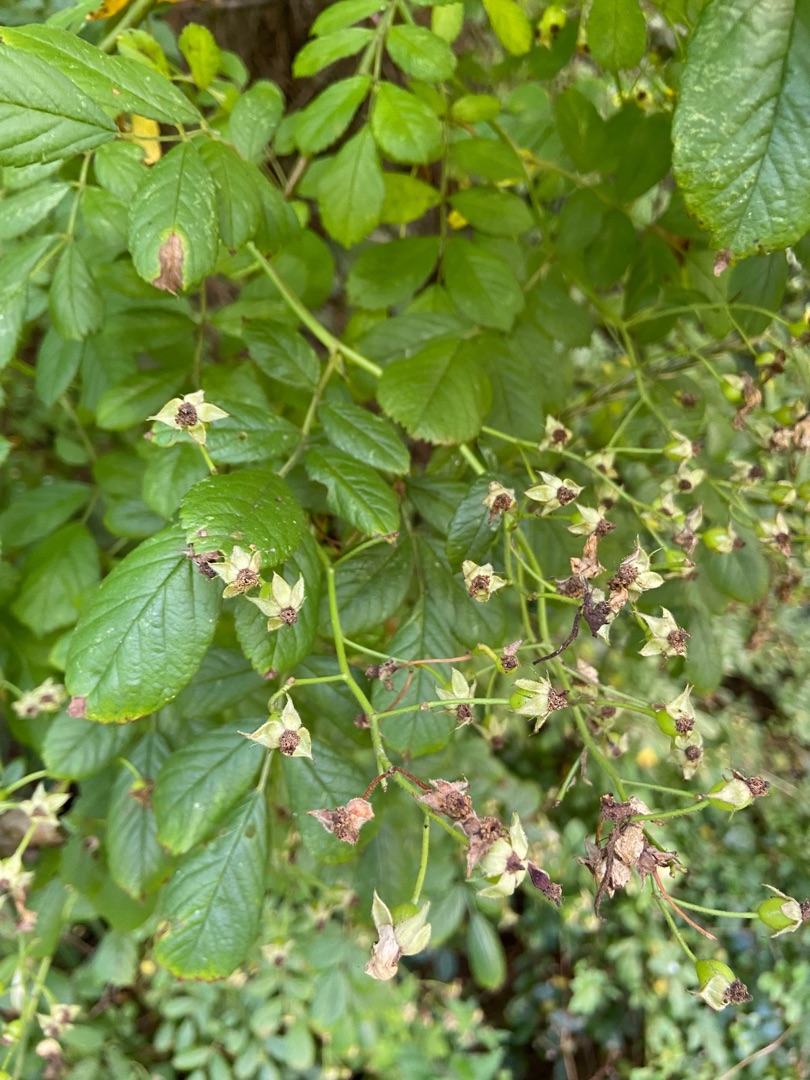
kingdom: Plantae
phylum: Tracheophyta
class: Magnoliopsida
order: Rosales
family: Rosaceae
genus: Rosa
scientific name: Rosa multiflora
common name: Mangeblomstret rose
